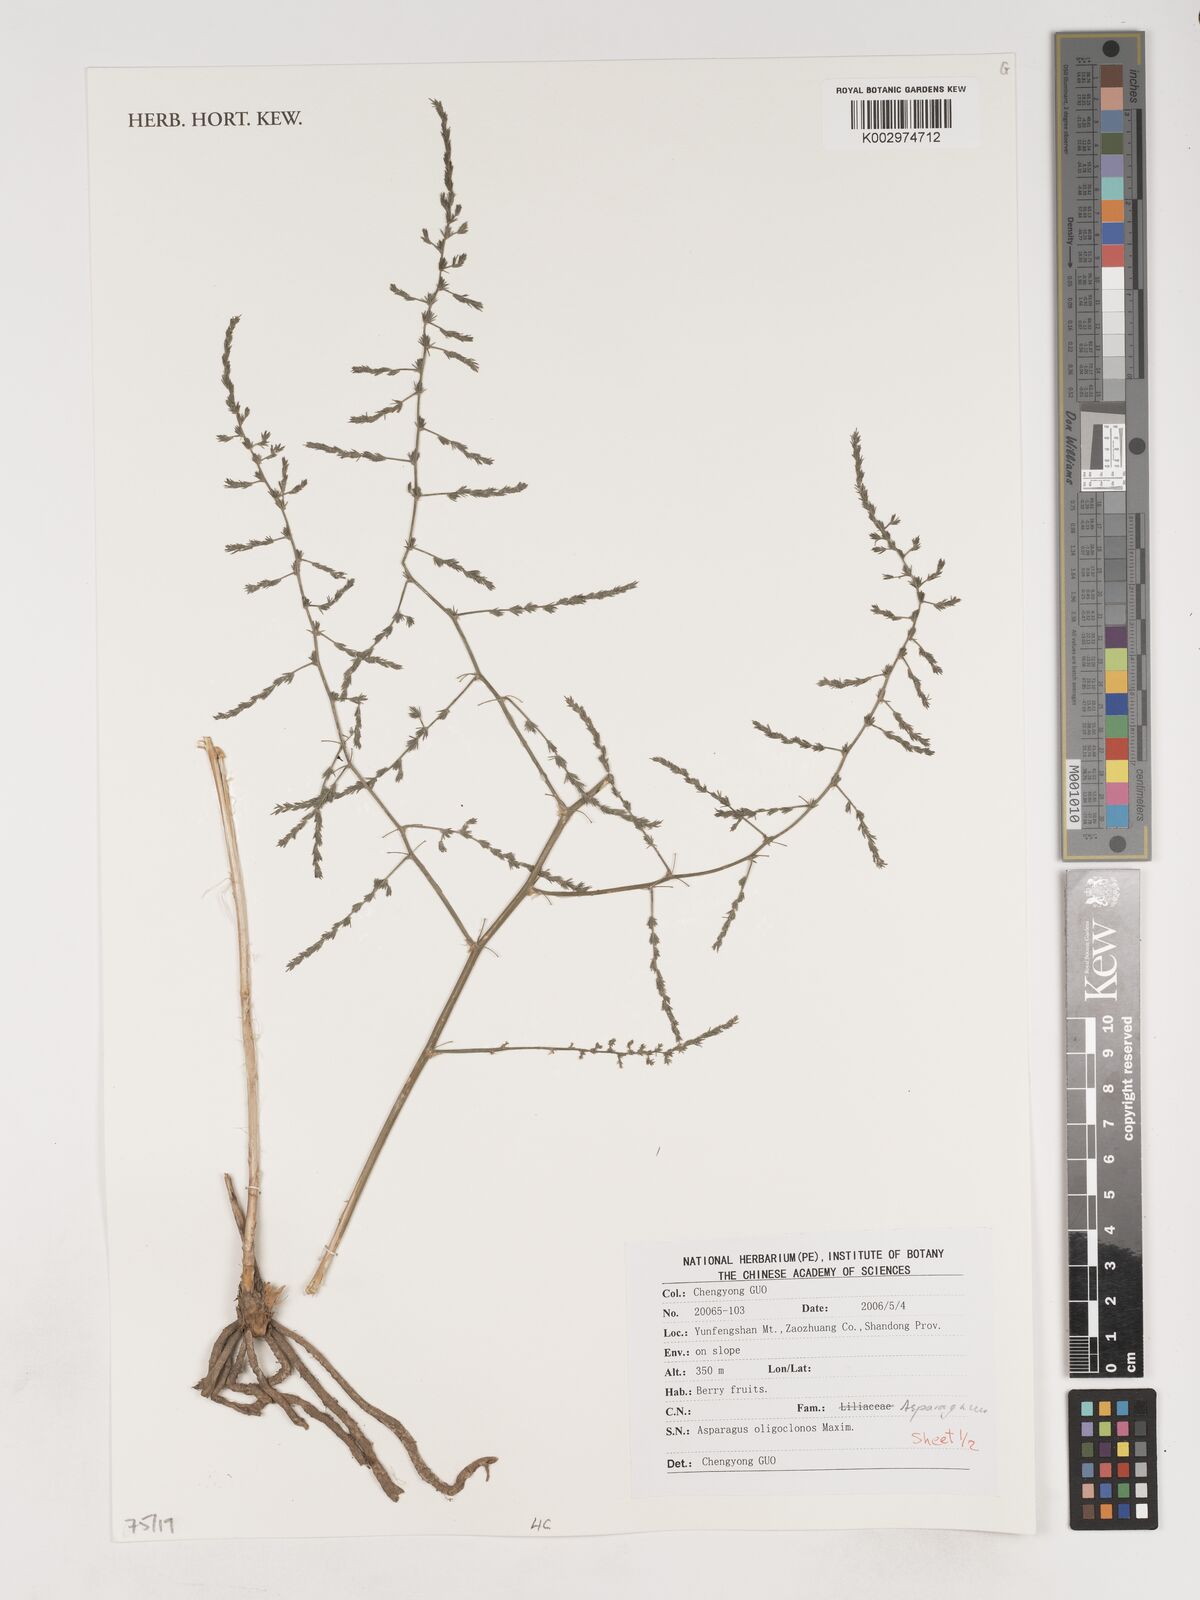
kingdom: Plantae
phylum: Tracheophyta
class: Liliopsida
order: Asparagales
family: Asparagaceae
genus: Asparagus
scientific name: Asparagus oligoclonos
